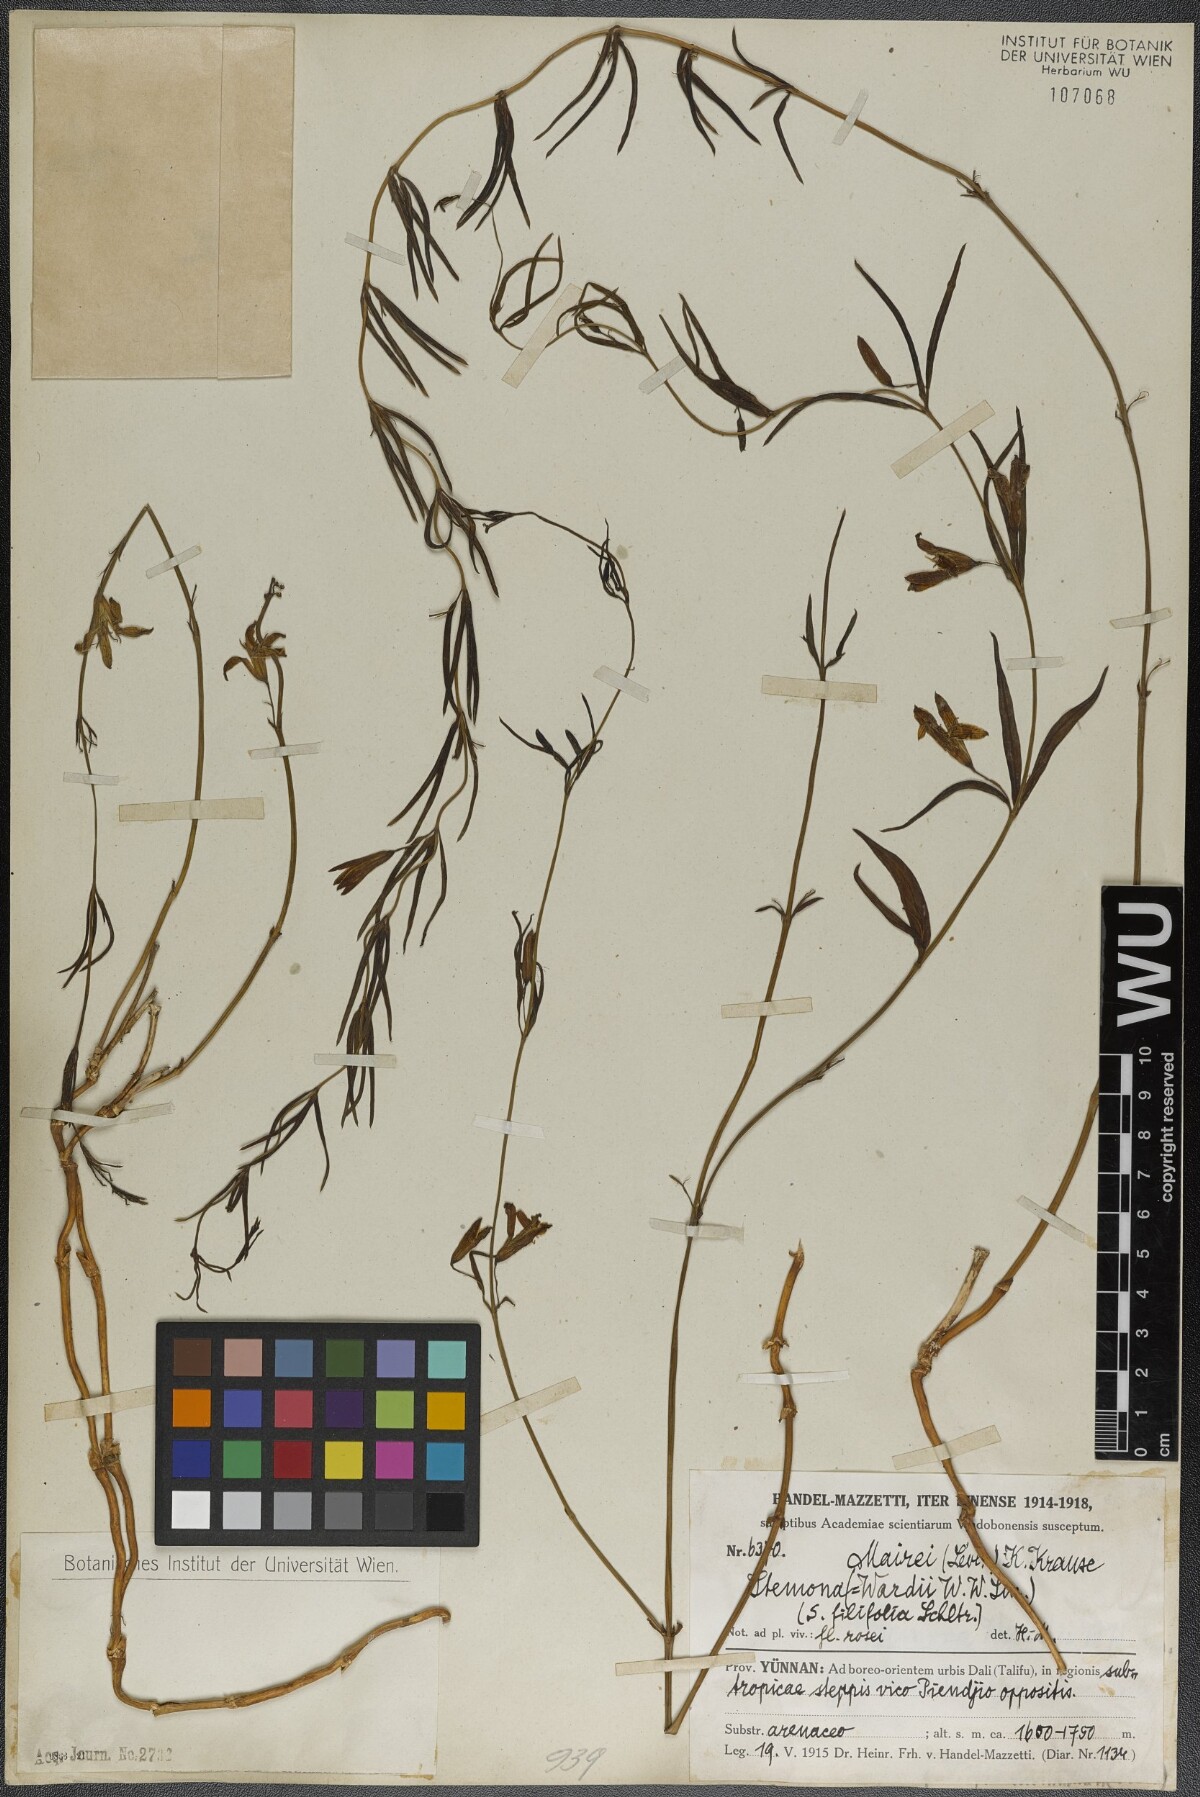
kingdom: Plantae
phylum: Tracheophyta
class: Liliopsida
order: Pandanales
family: Stemonaceae
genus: Stemona
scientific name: Stemona mairei
